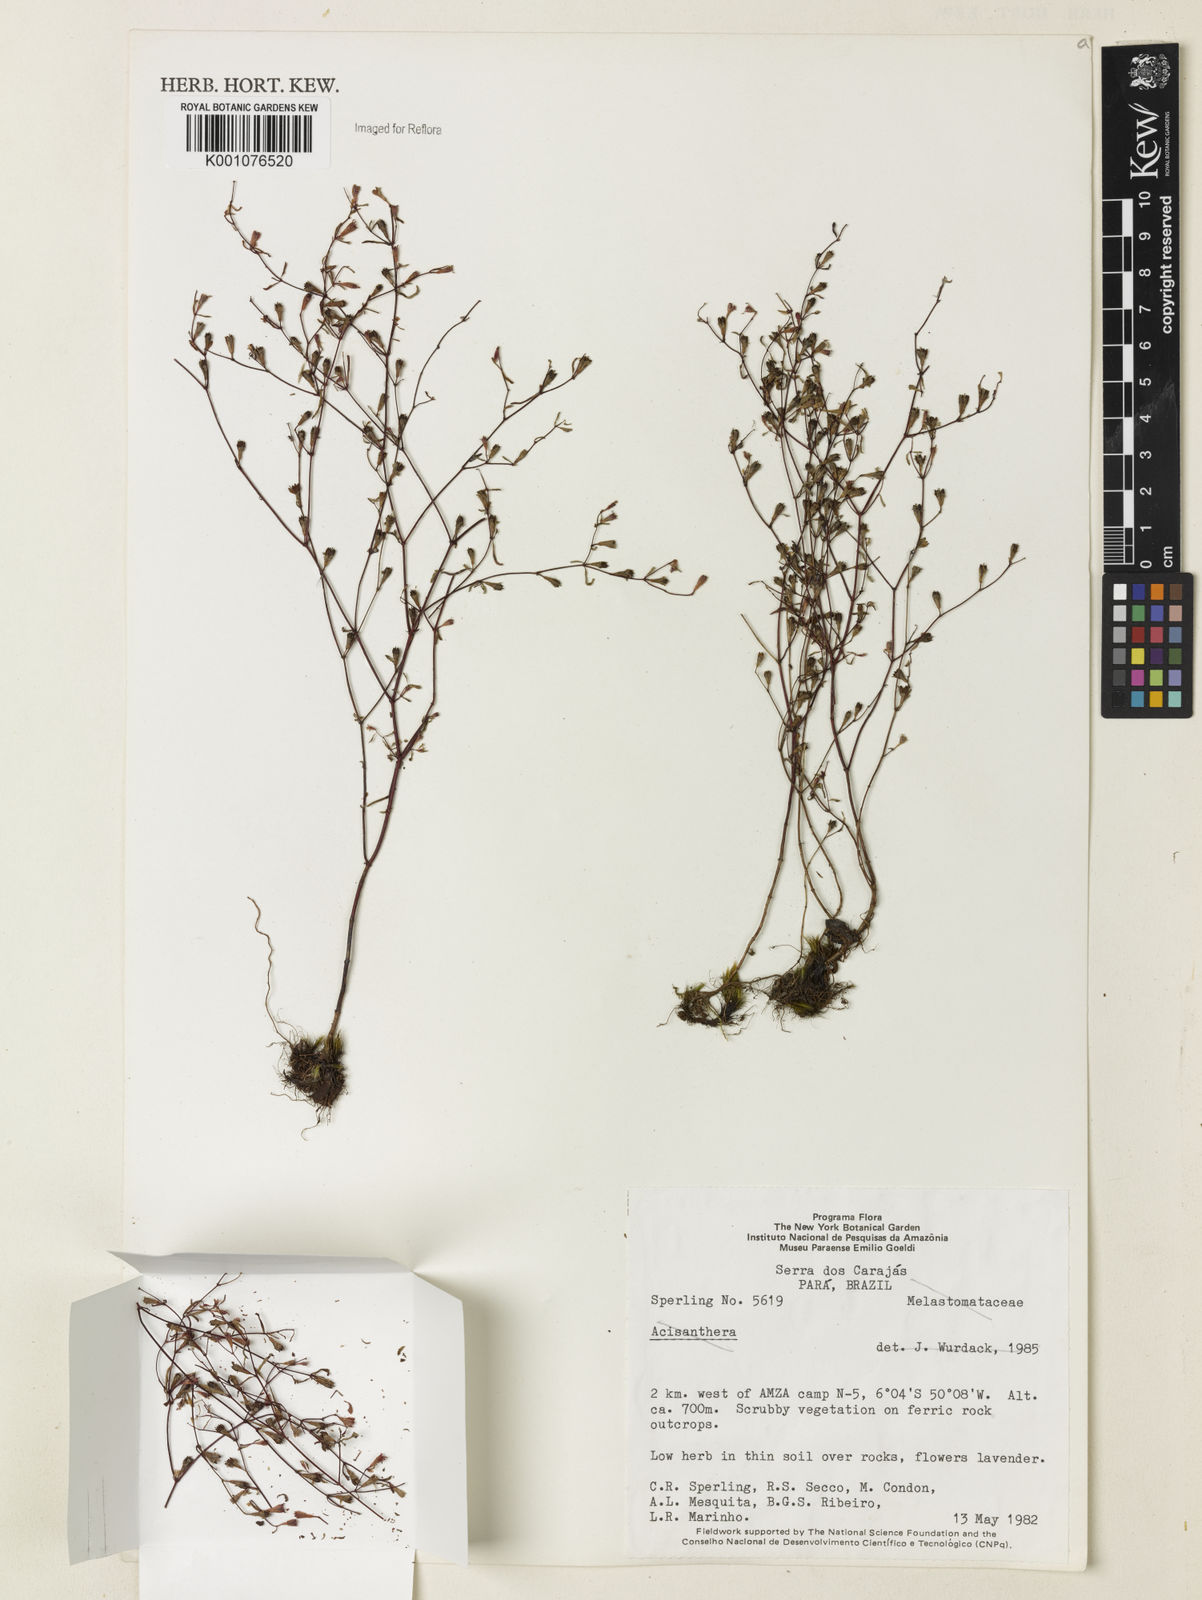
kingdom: Plantae
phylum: Tracheophyta
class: Magnoliopsida
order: Myrtales
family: Lythraceae
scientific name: Lythraceae
